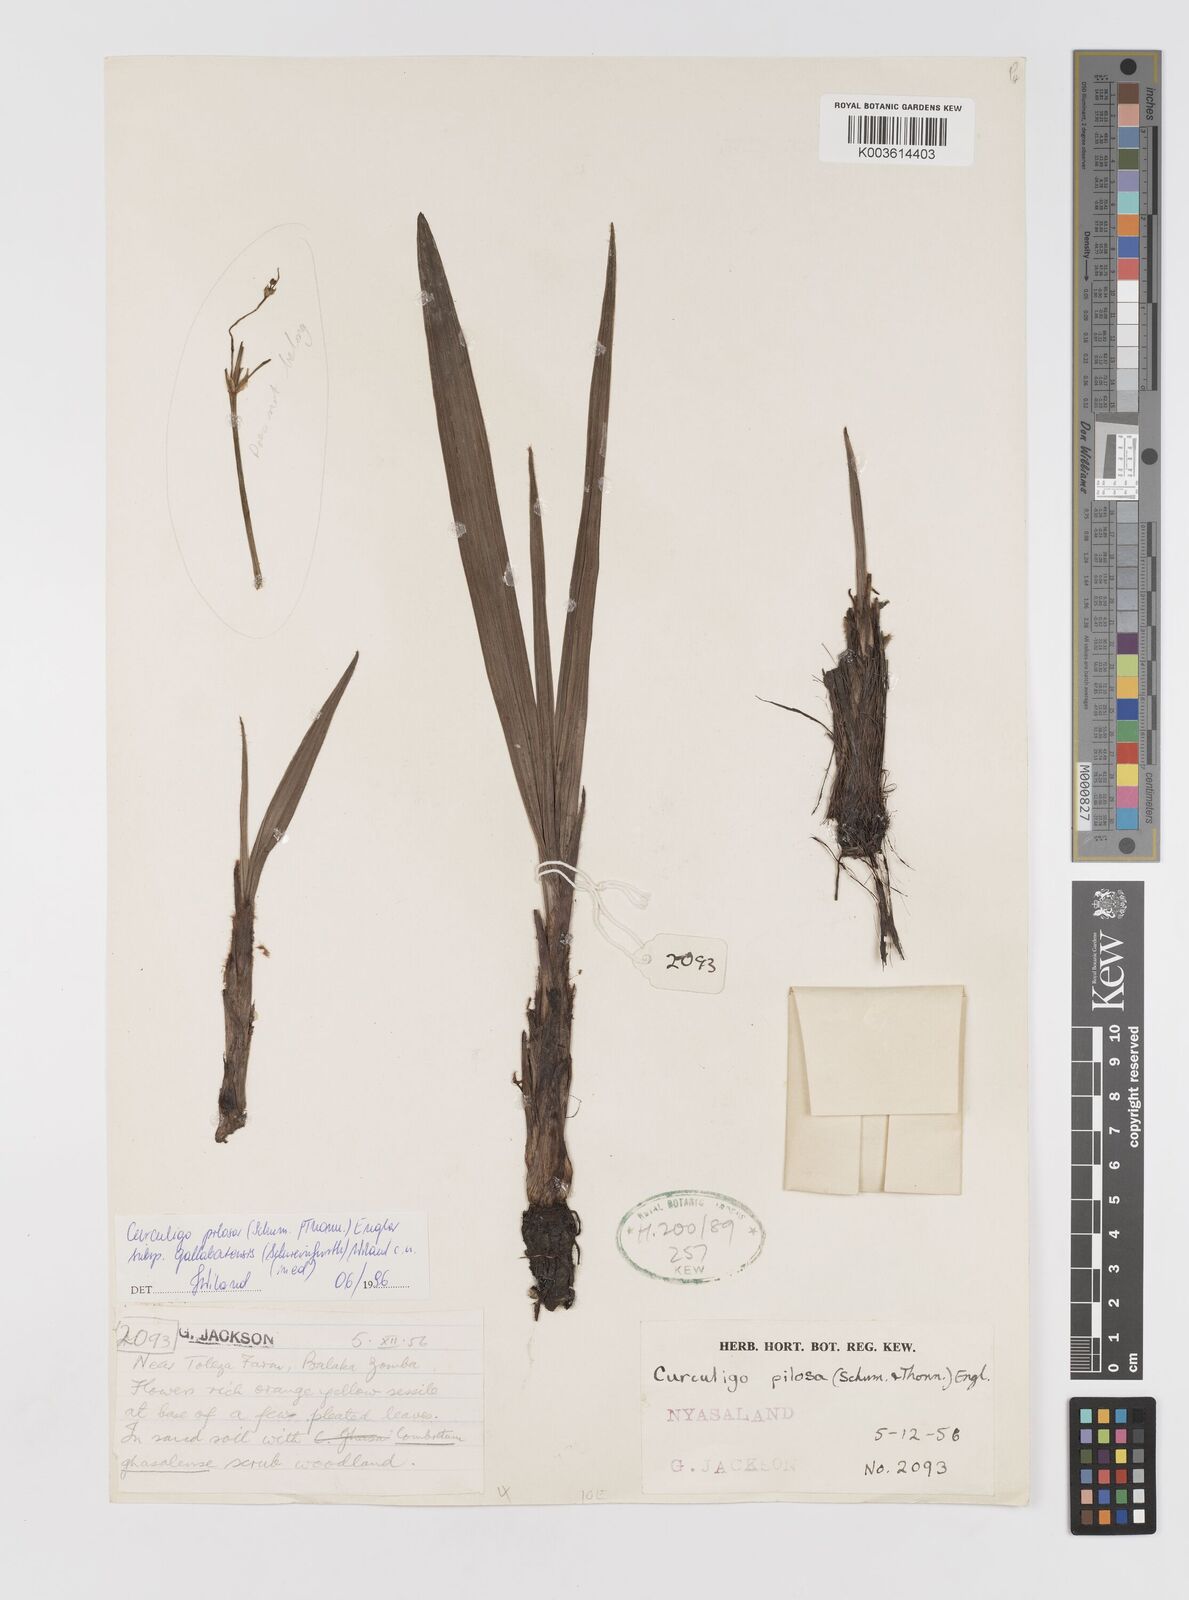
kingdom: Plantae
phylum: Tracheophyta
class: Liliopsida
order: Asparagales
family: Hypoxidaceae
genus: Curculigo
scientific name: Curculigo pilosa
